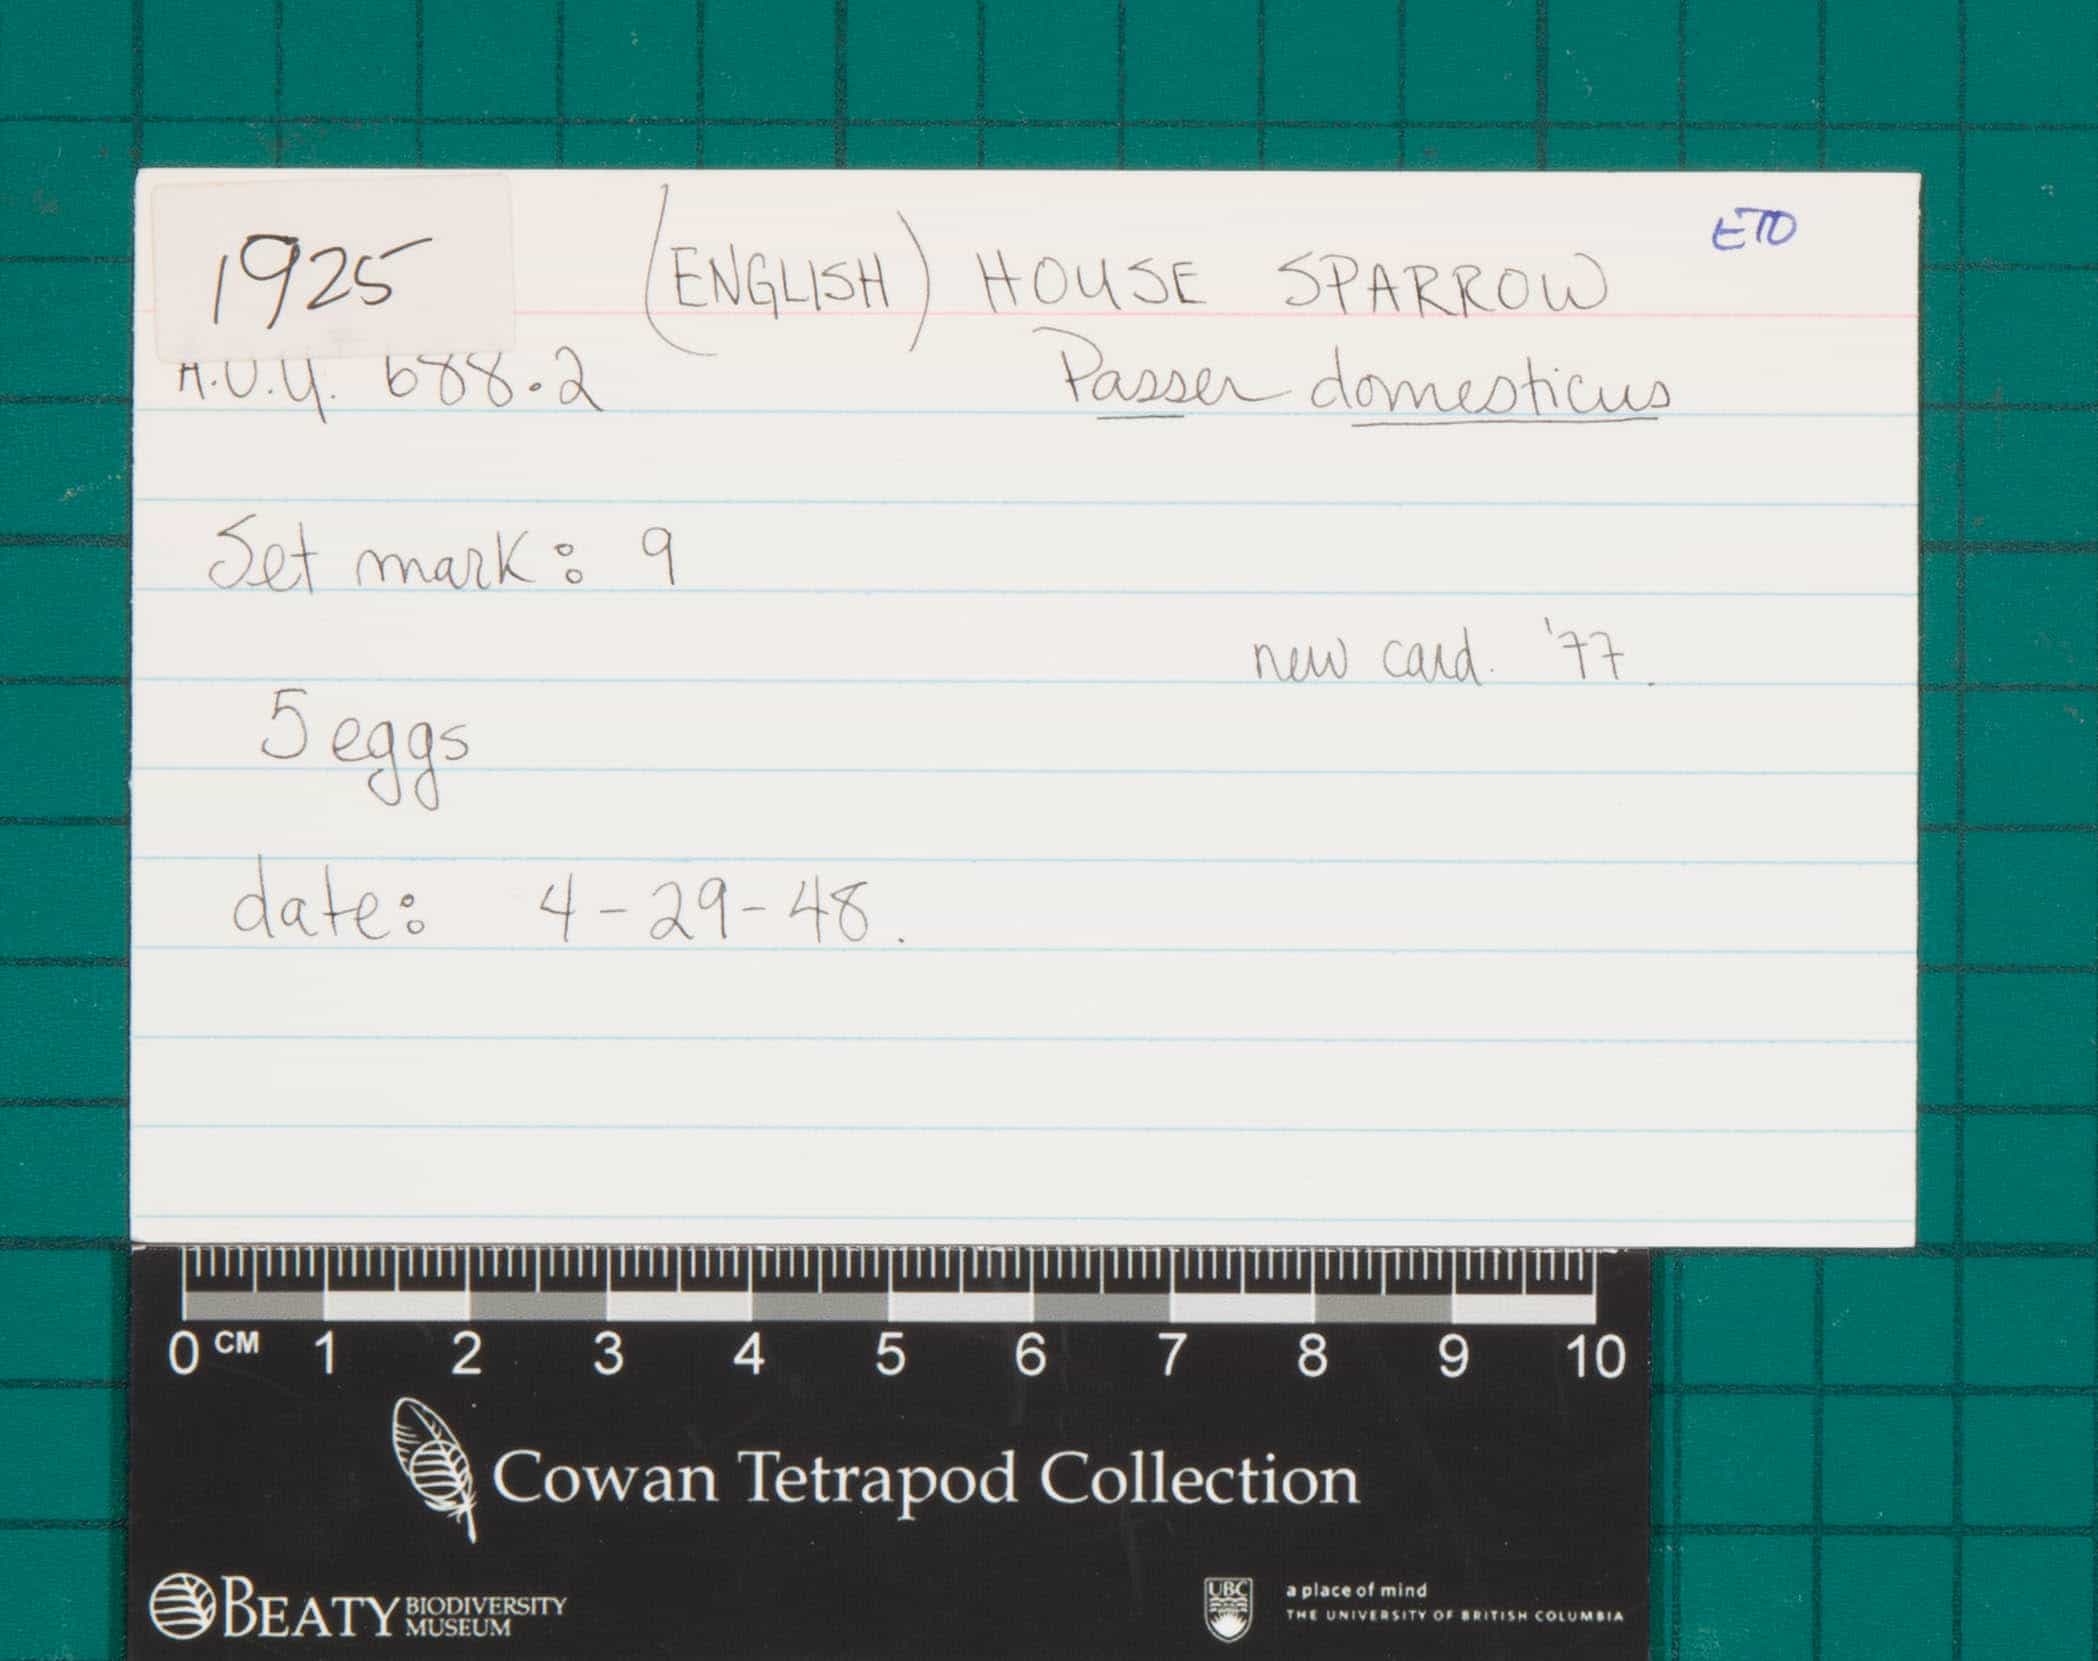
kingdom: Animalia
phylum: Chordata
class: Aves
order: Passeriformes
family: Passeridae
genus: Passer
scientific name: Passer domesticus
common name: House Sparrow
